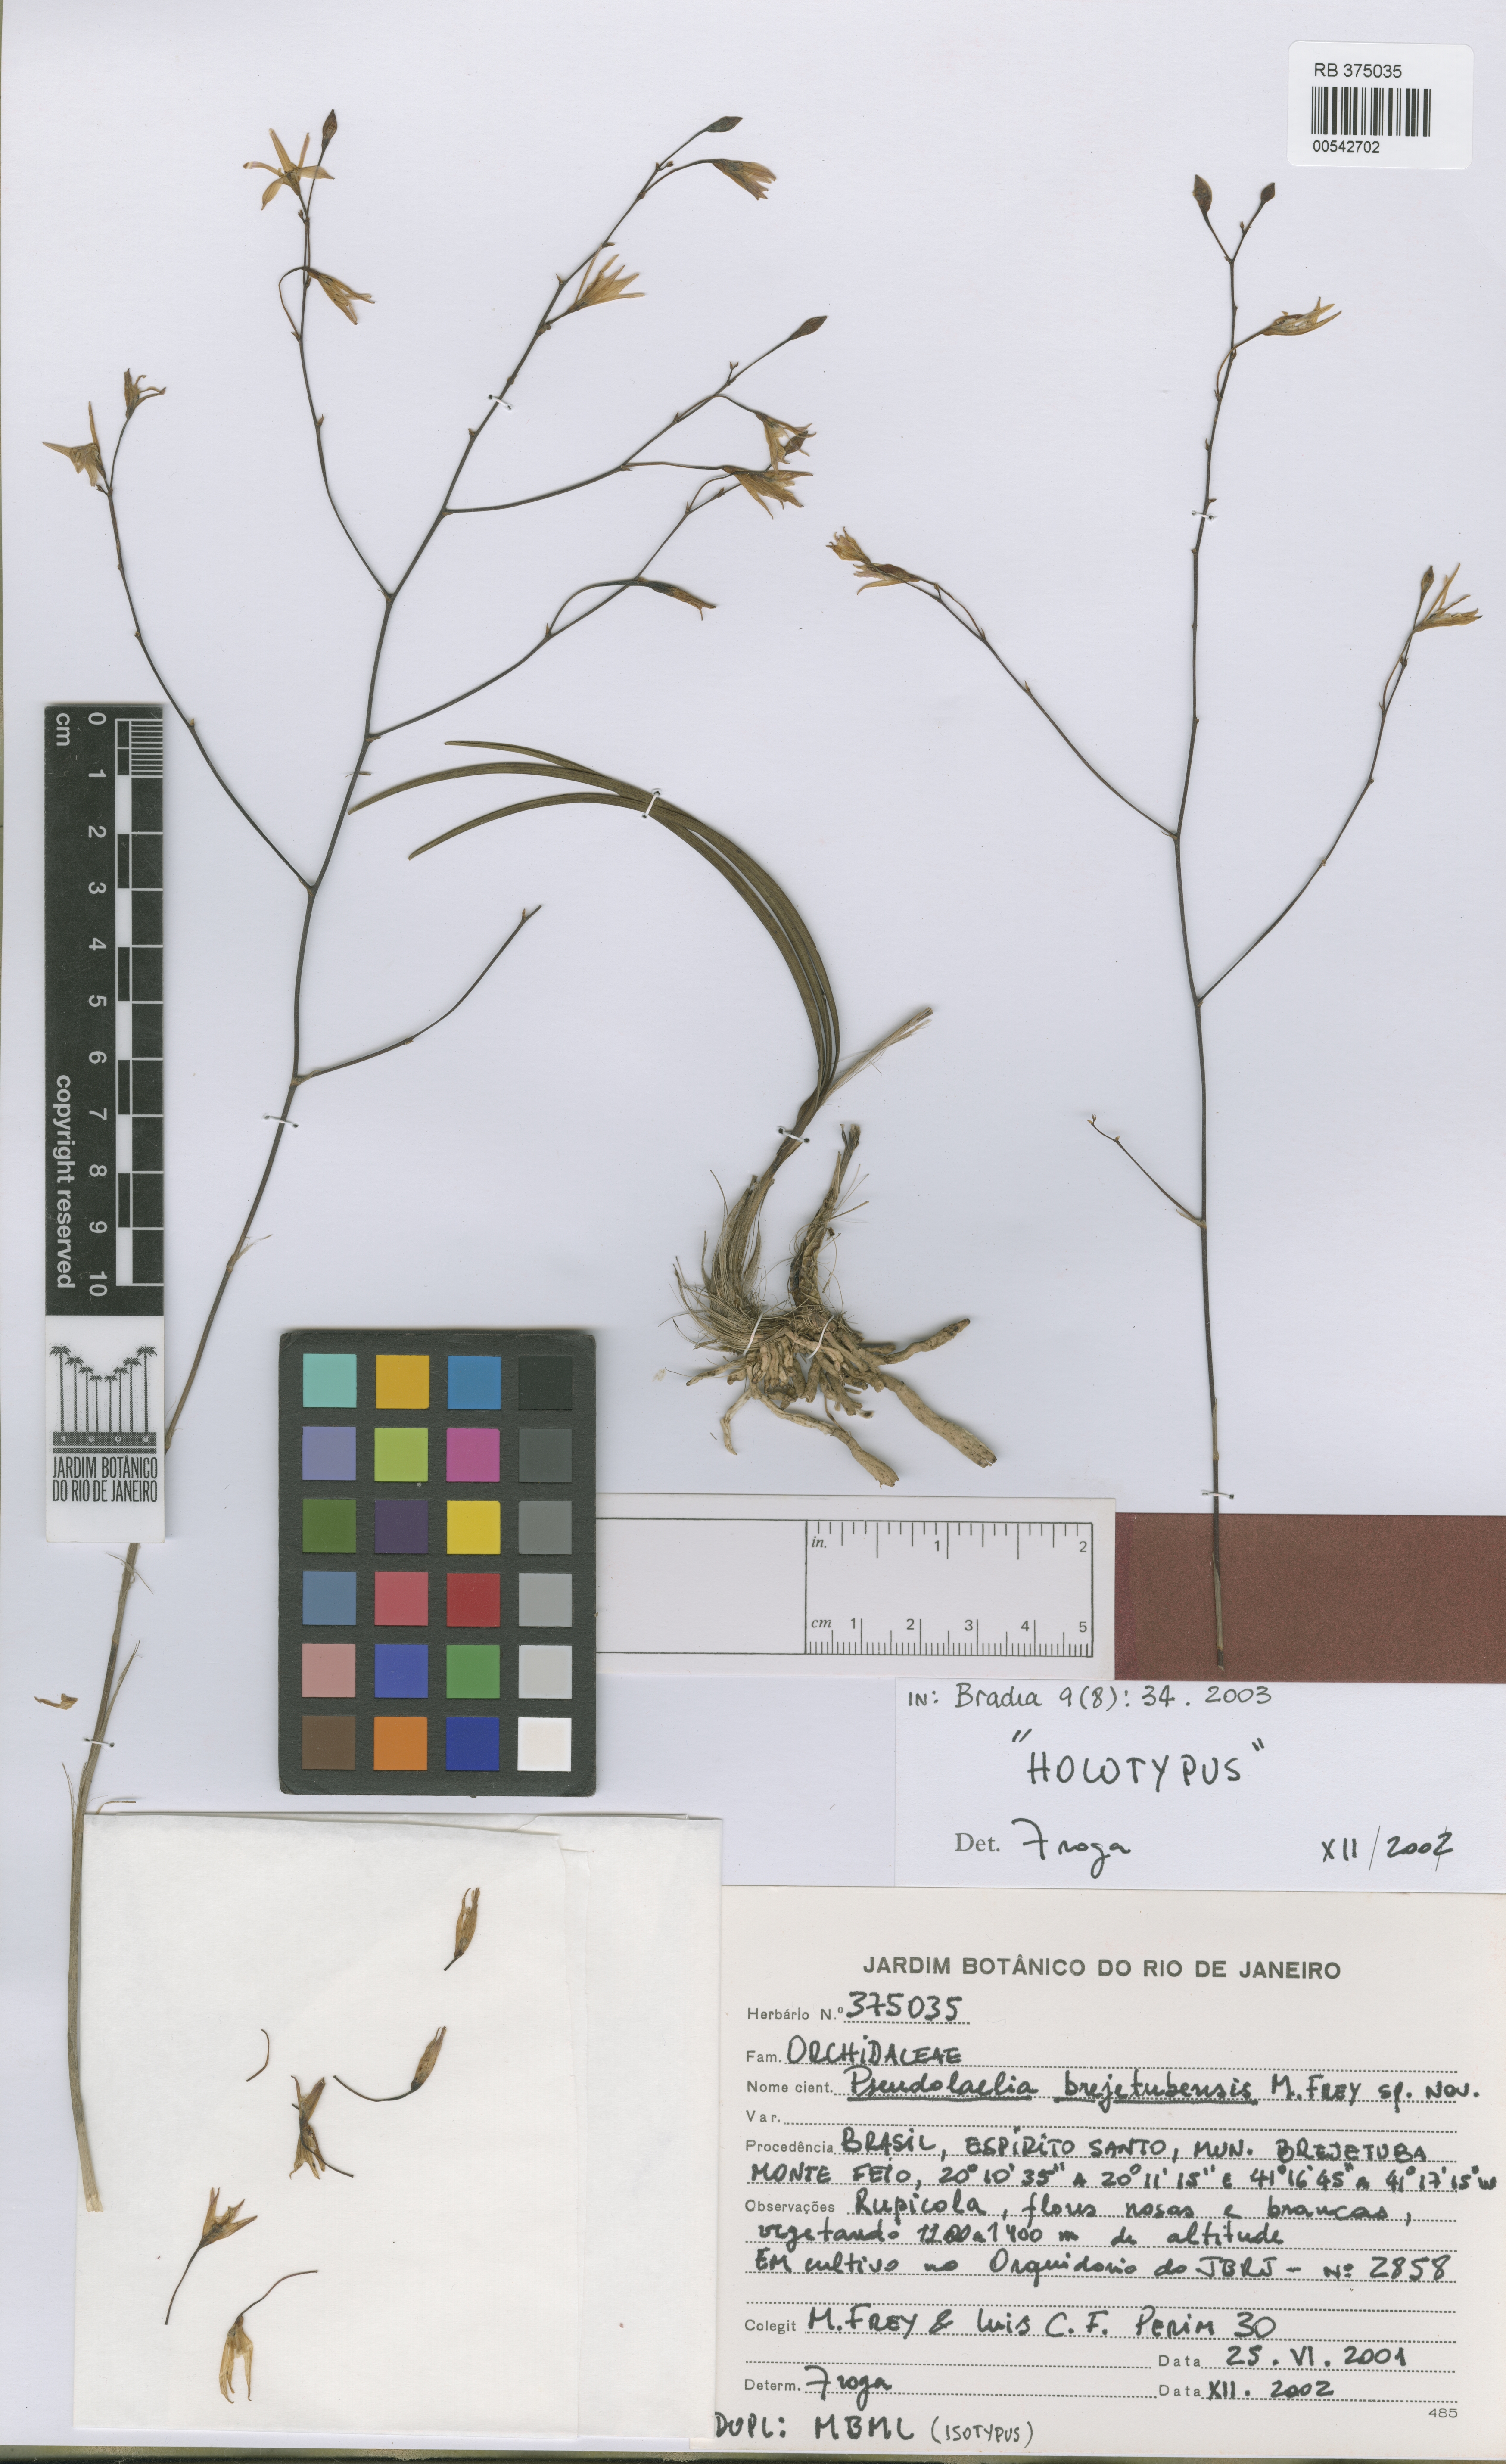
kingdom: Plantae
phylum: Tracheophyta
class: Liliopsida
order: Asparagales
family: Orchidaceae
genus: Pseudolaelia
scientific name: Pseudolaelia brejetubensis
